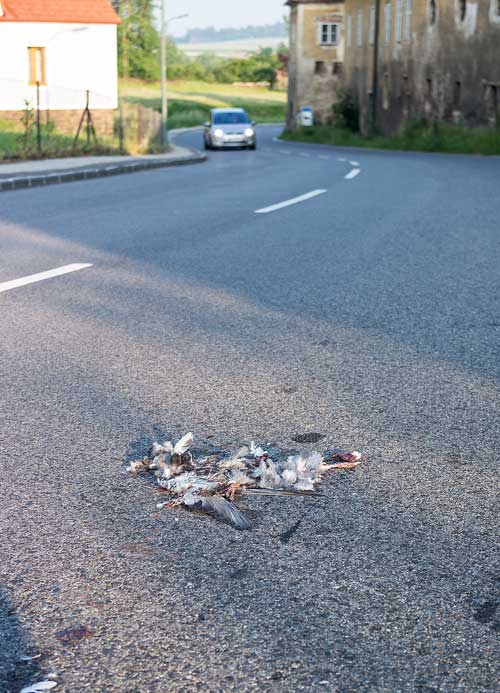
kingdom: Animalia
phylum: Chordata
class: Aves
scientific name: Aves
